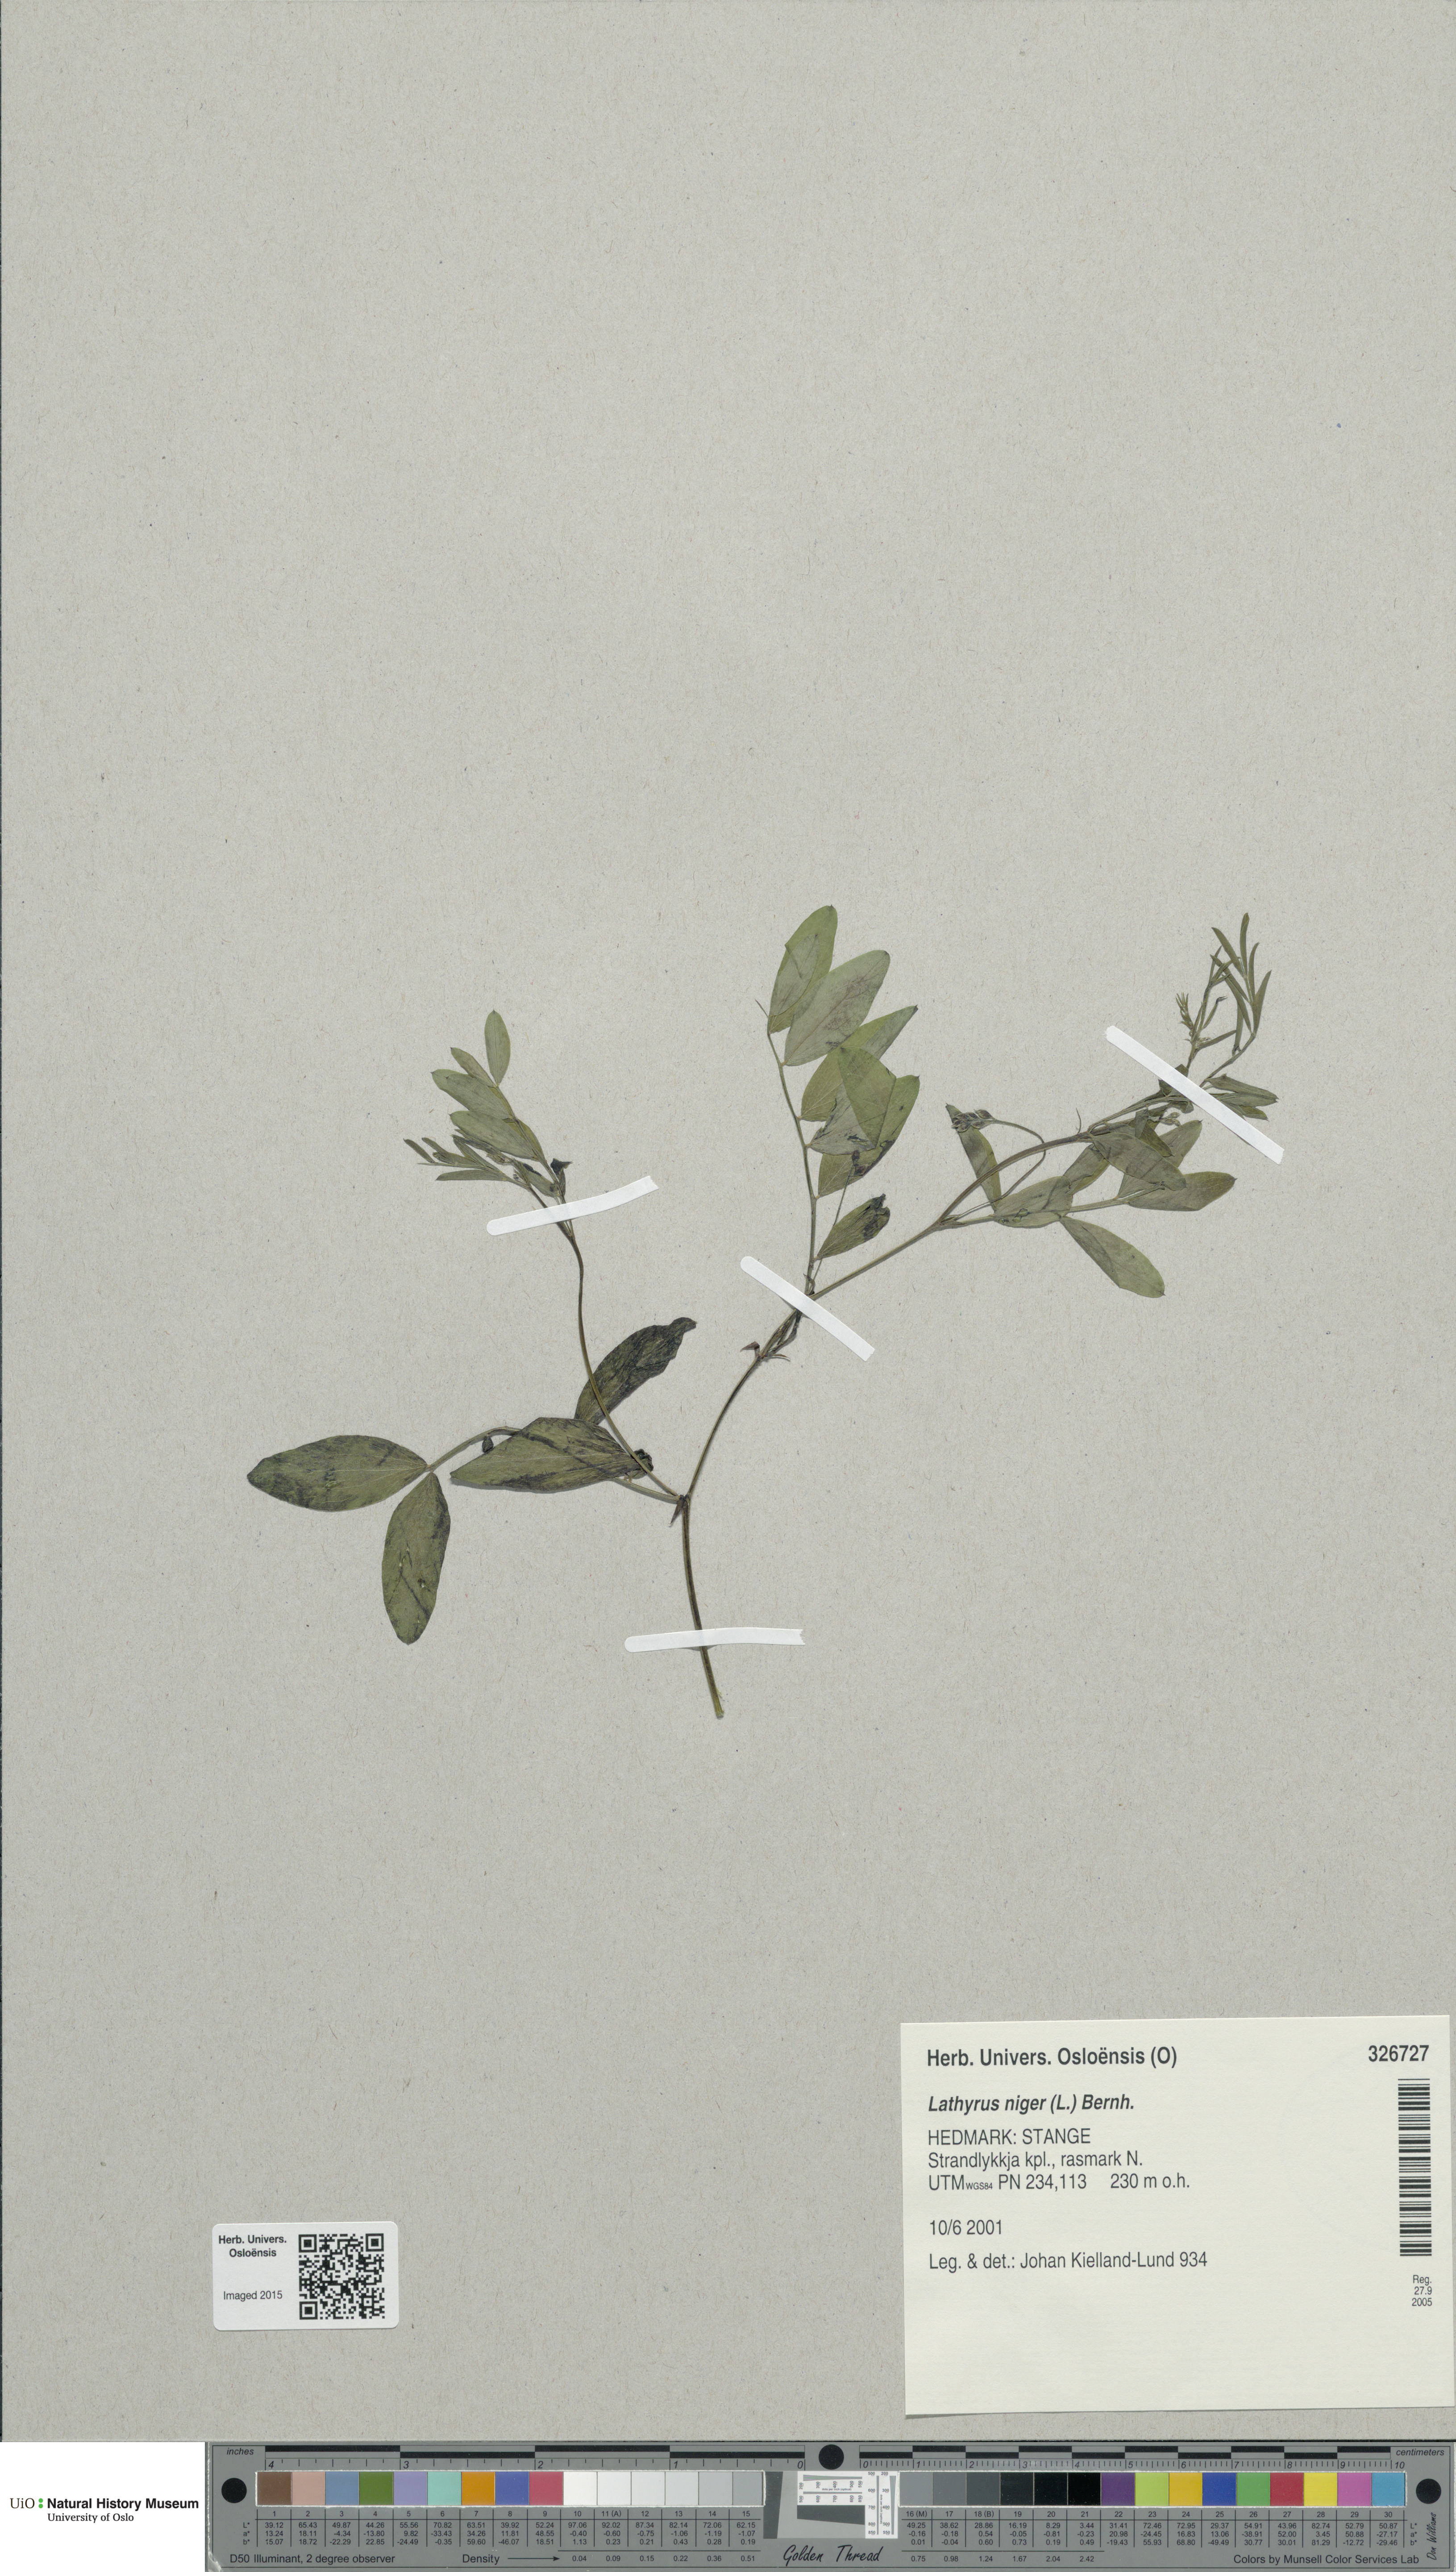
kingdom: Plantae
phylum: Tracheophyta
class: Magnoliopsida
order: Fabales
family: Fabaceae
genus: Lathyrus
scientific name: Lathyrus niger
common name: Black pea
